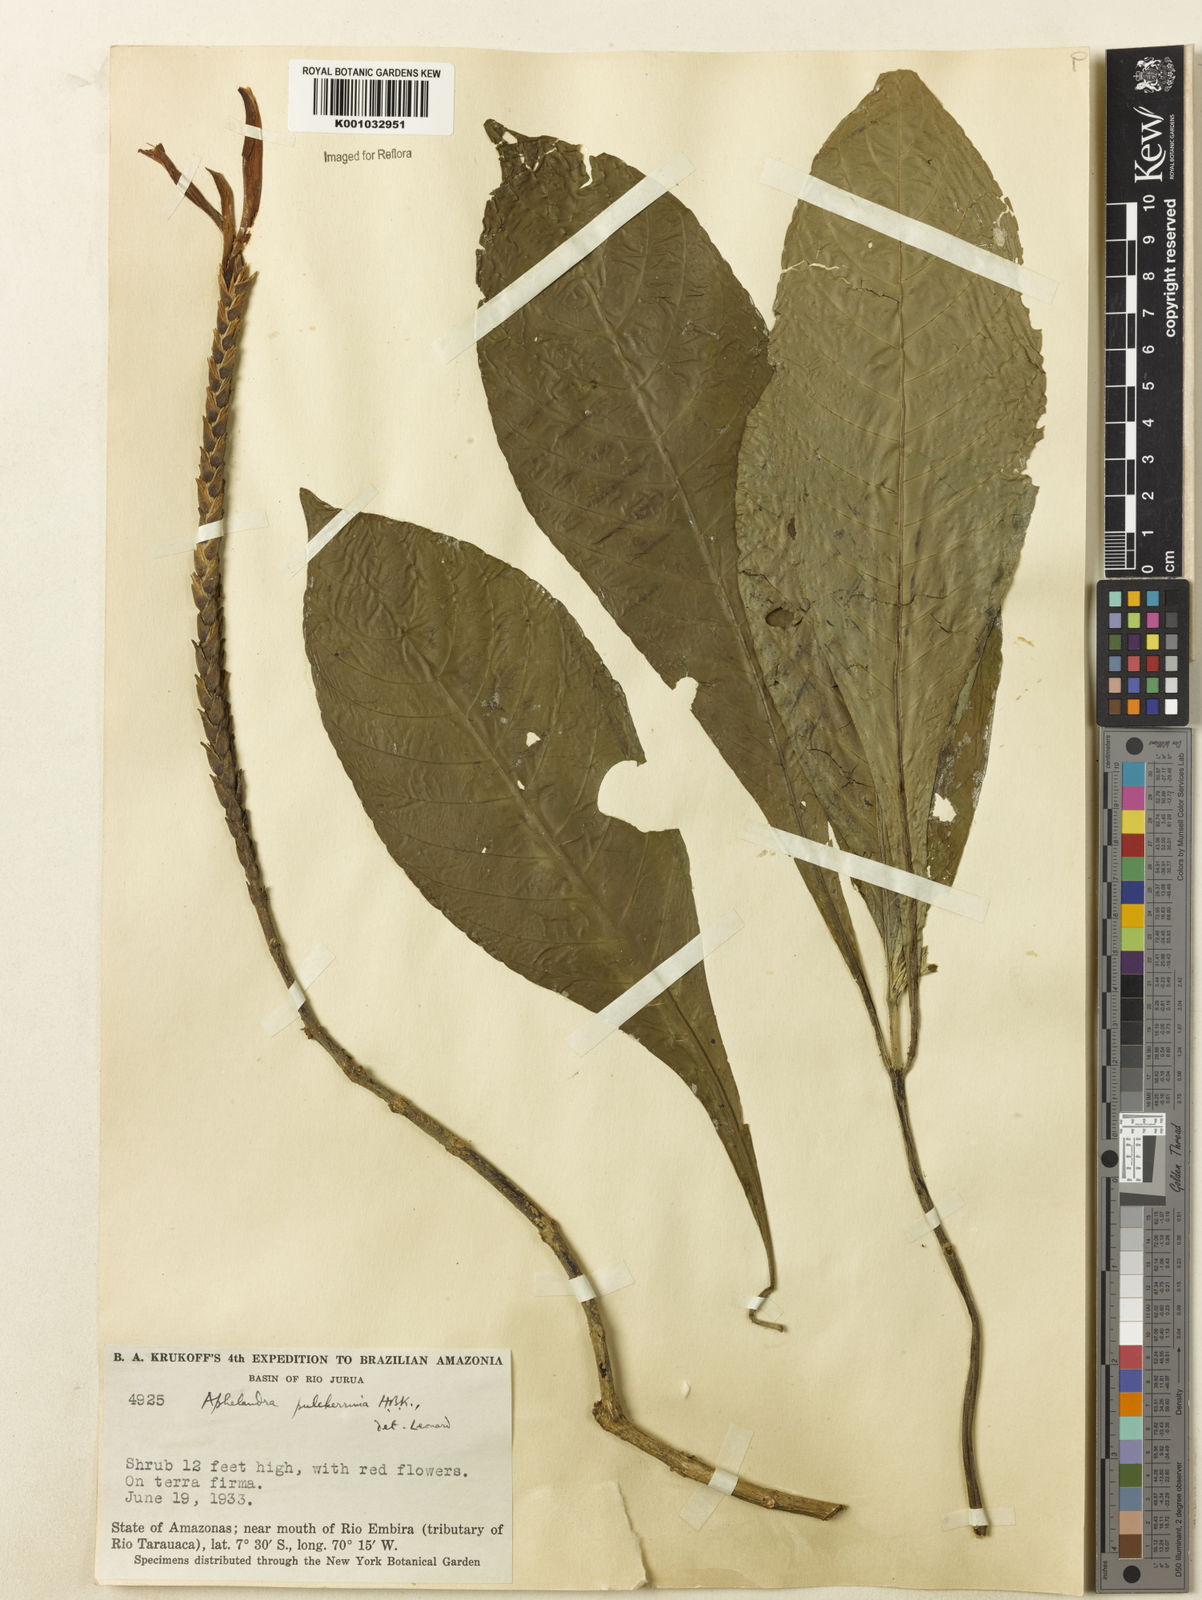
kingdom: Plantae
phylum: Tracheophyta
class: Magnoliopsida
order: Lamiales
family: Acanthaceae
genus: Aphelandra
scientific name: Aphelandra pulcherrima
